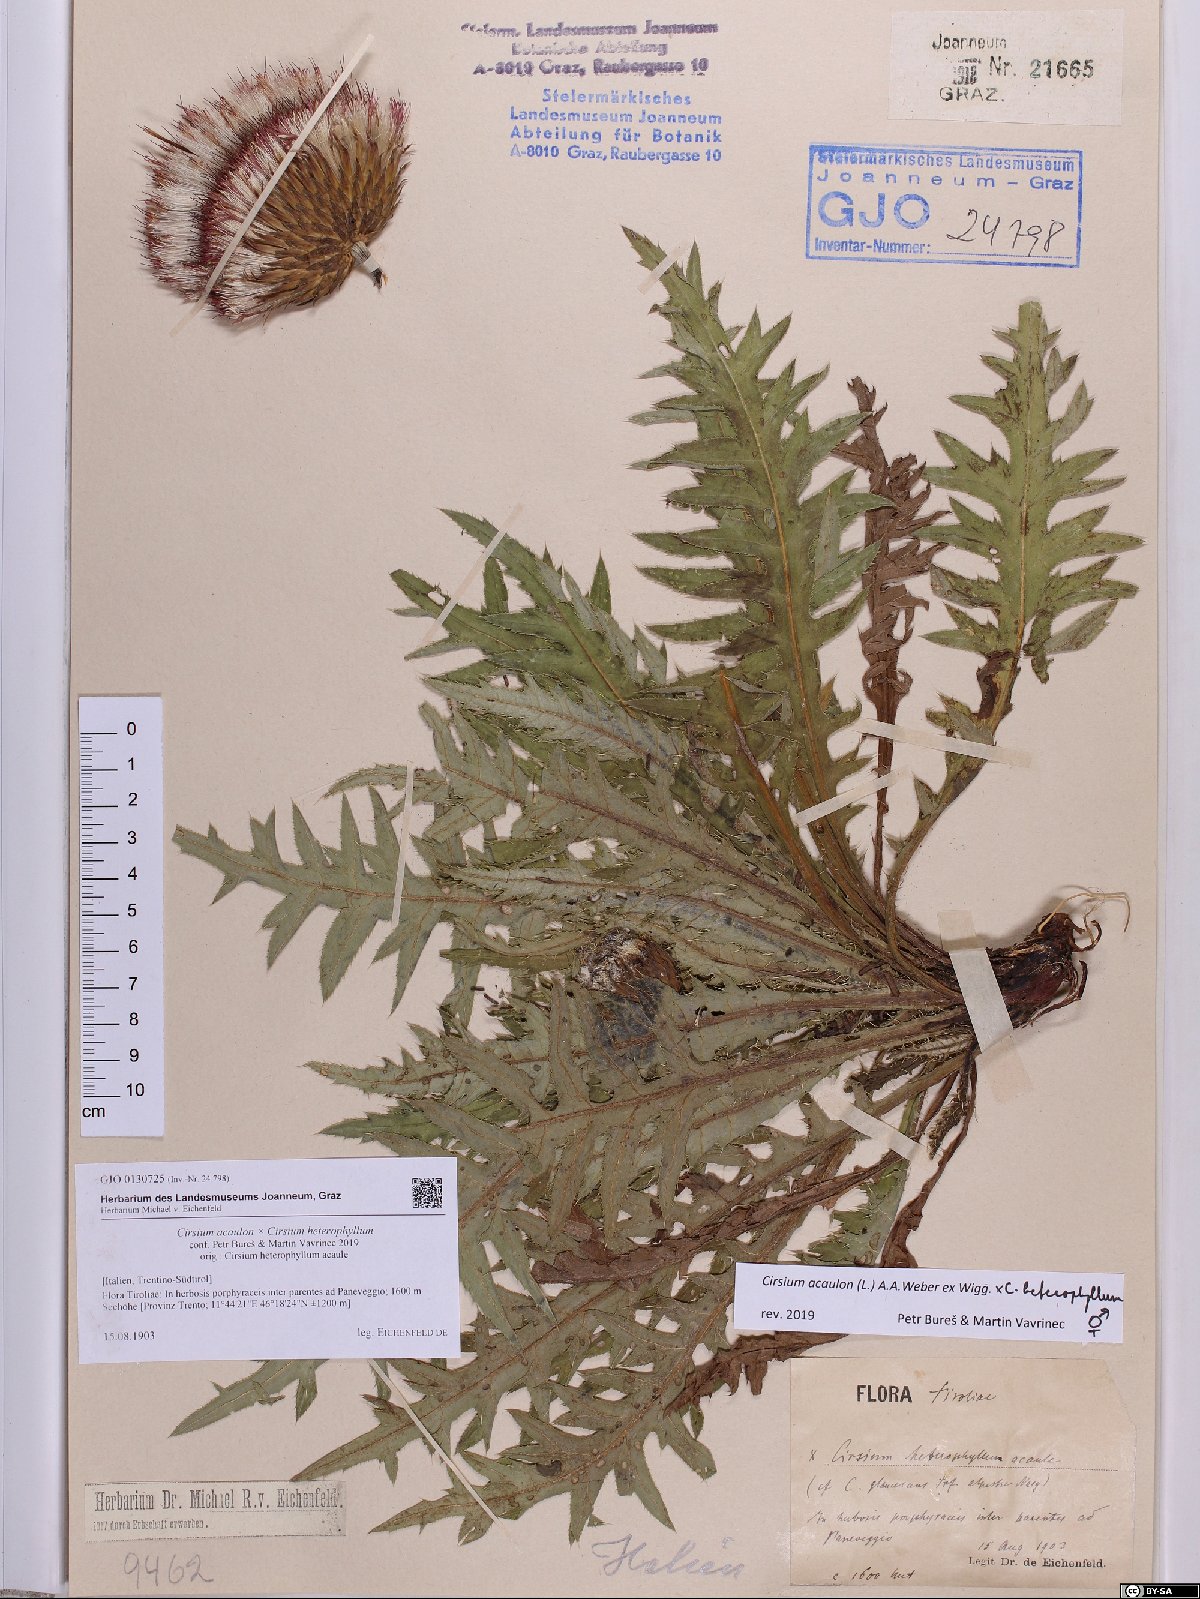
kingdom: Plantae
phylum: Tracheophyta
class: Magnoliopsida
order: Asterales
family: Asteraceae
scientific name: Asteraceae
